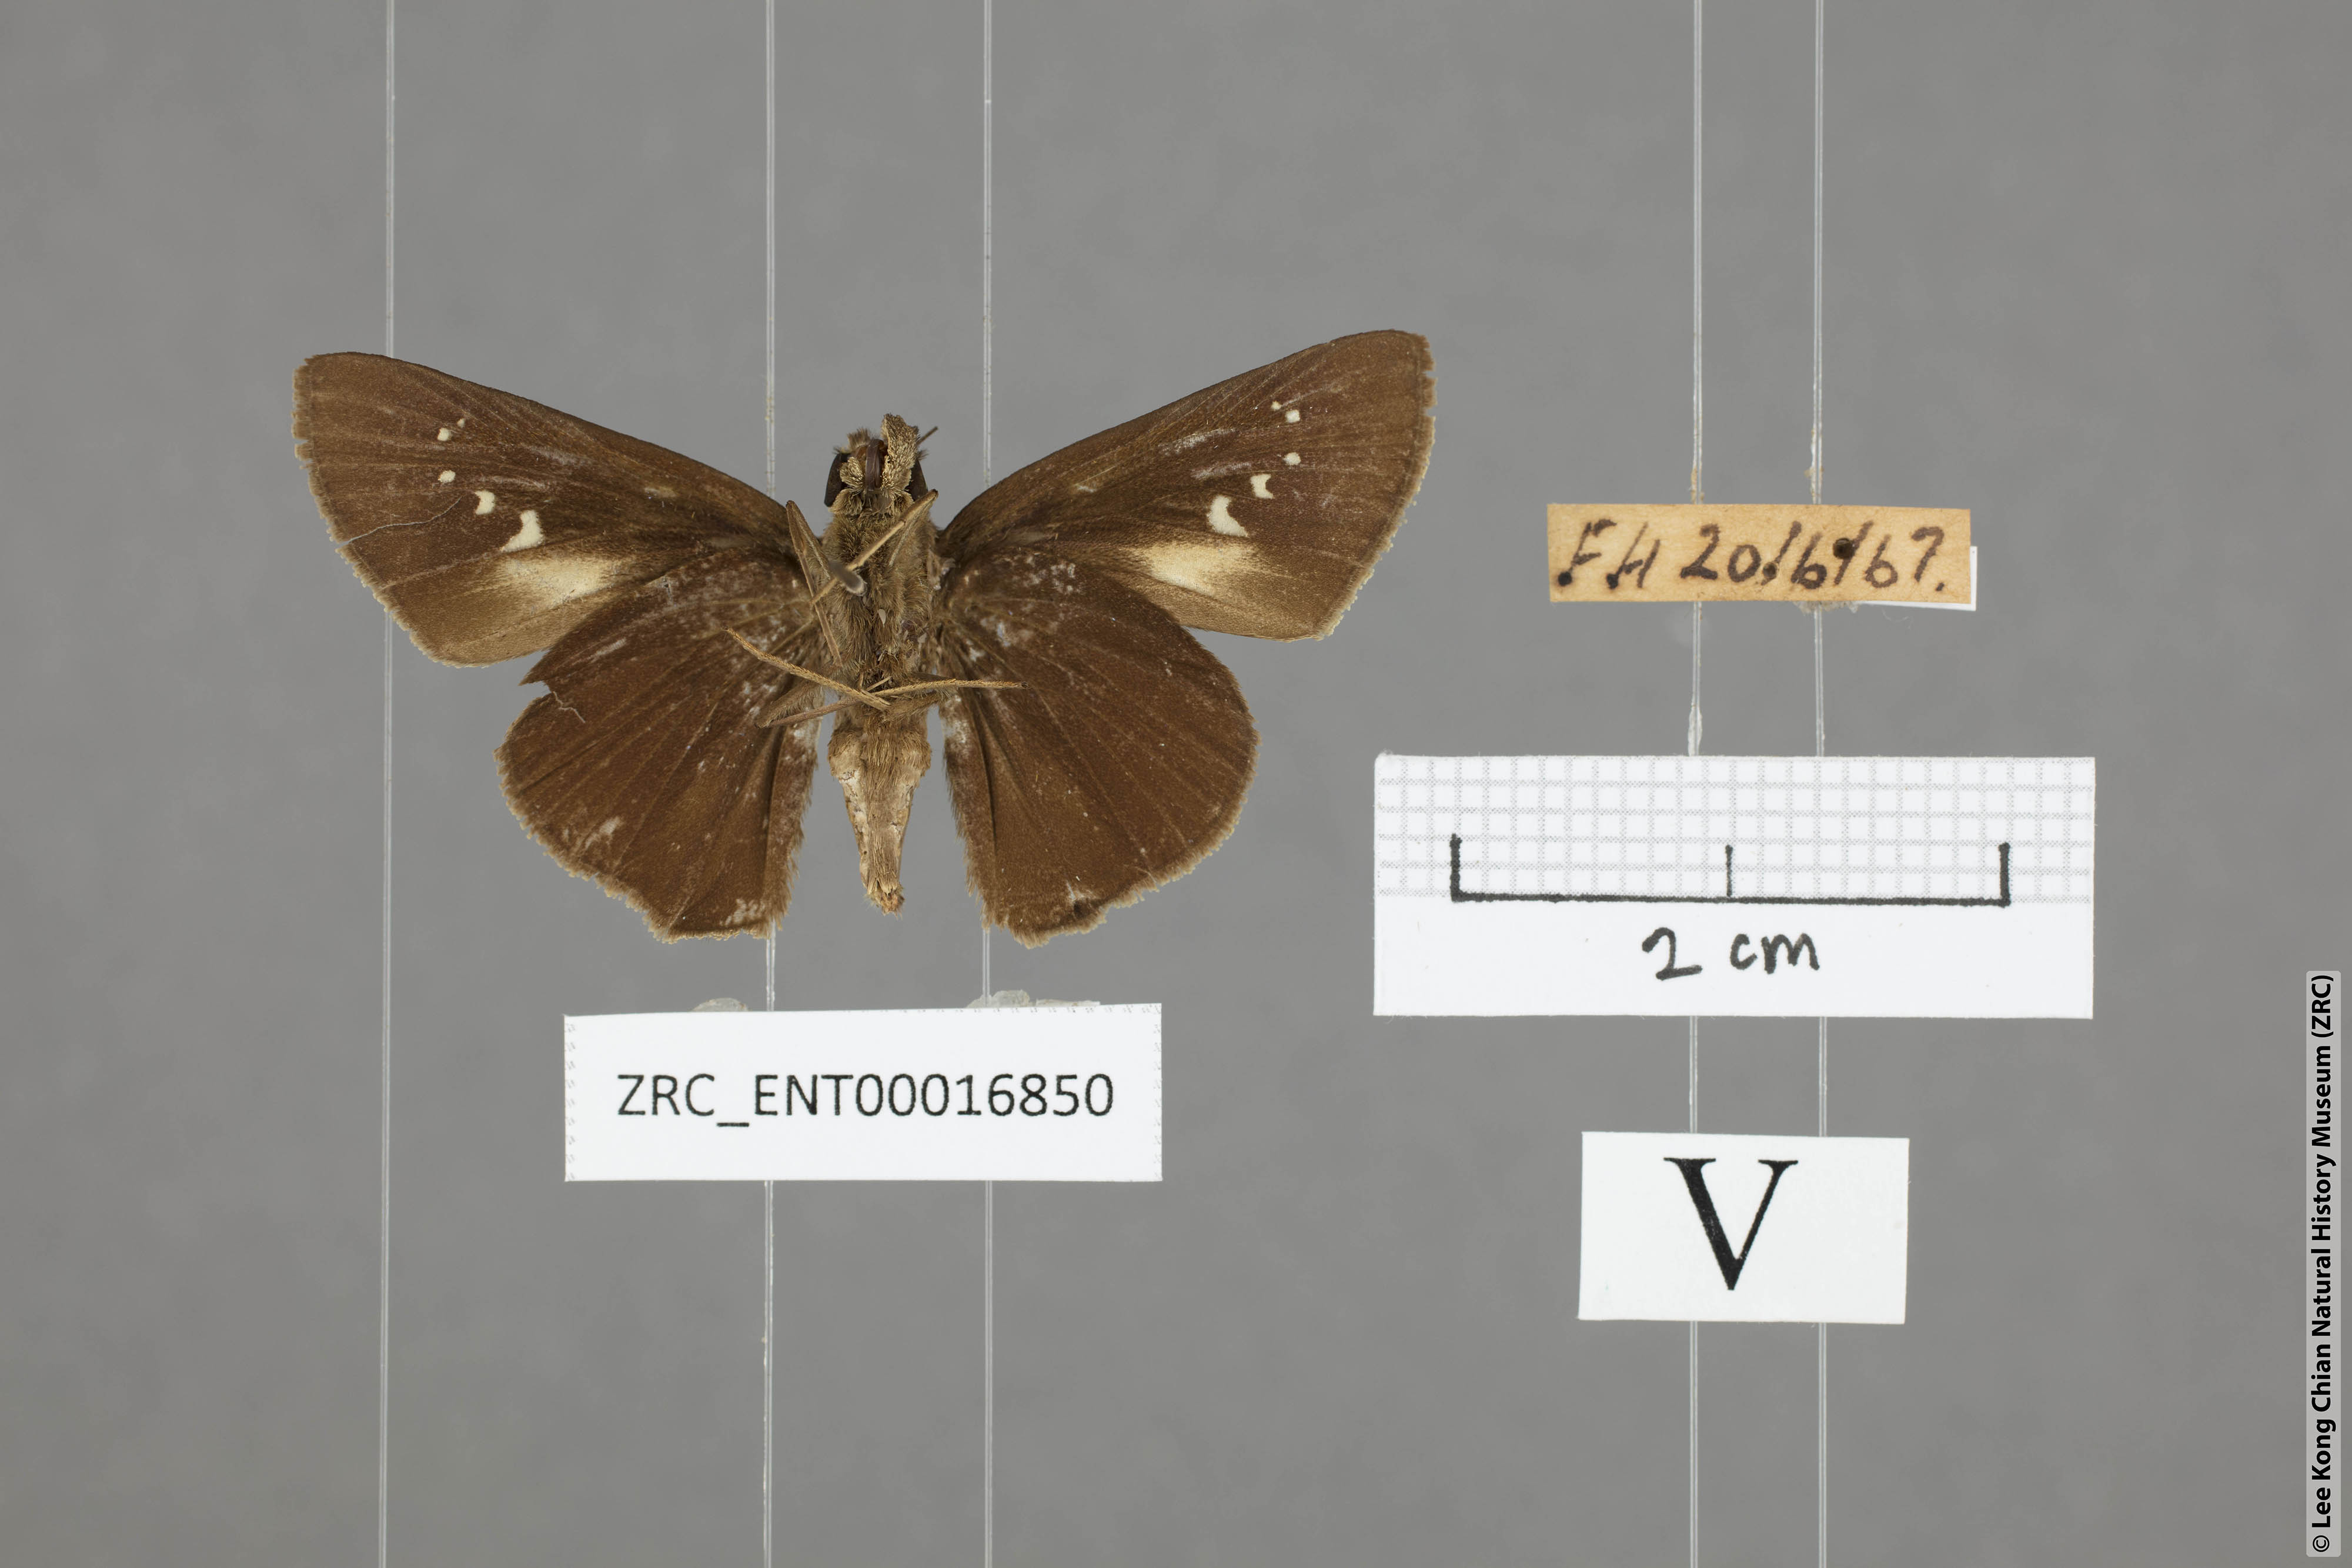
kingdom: Animalia
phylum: Arthropoda
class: Insecta
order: Lepidoptera
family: Hesperiidae
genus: Caltoris
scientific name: Caltoris plebeia
